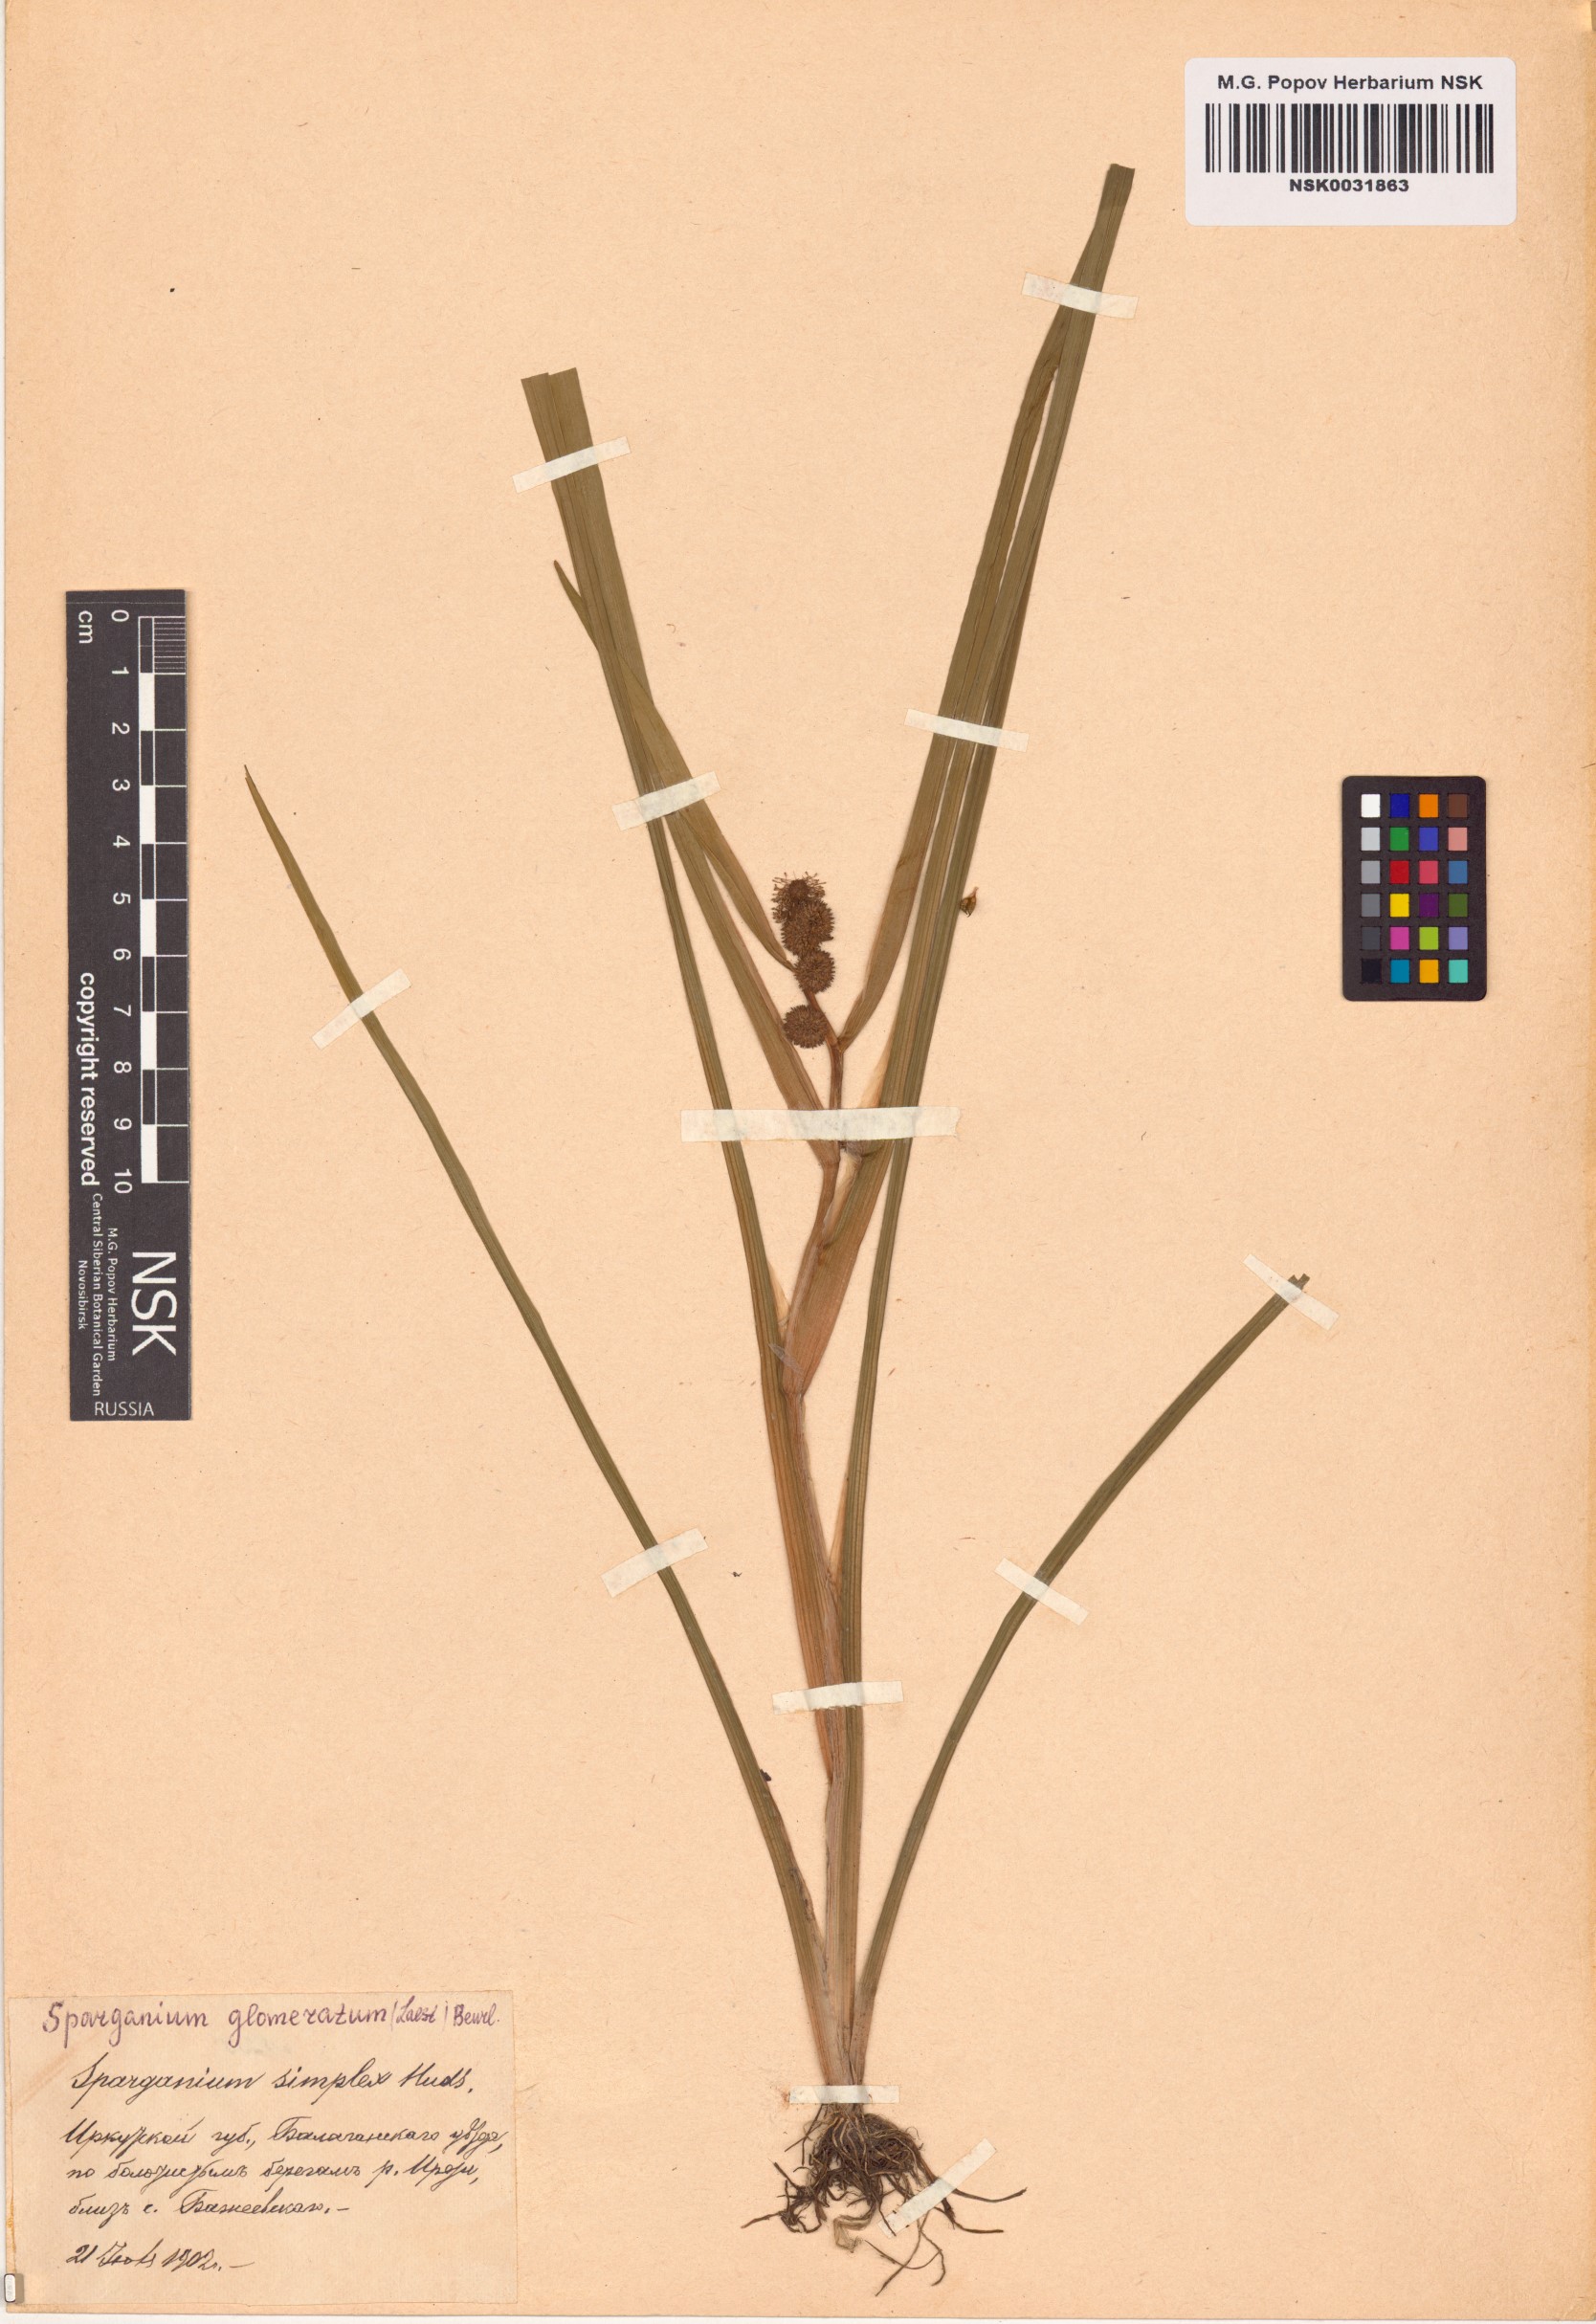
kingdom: Plantae
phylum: Tracheophyta
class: Liliopsida
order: Poales
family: Typhaceae
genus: Sparganium
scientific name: Sparganium glomeratum
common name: Clustered burreed
